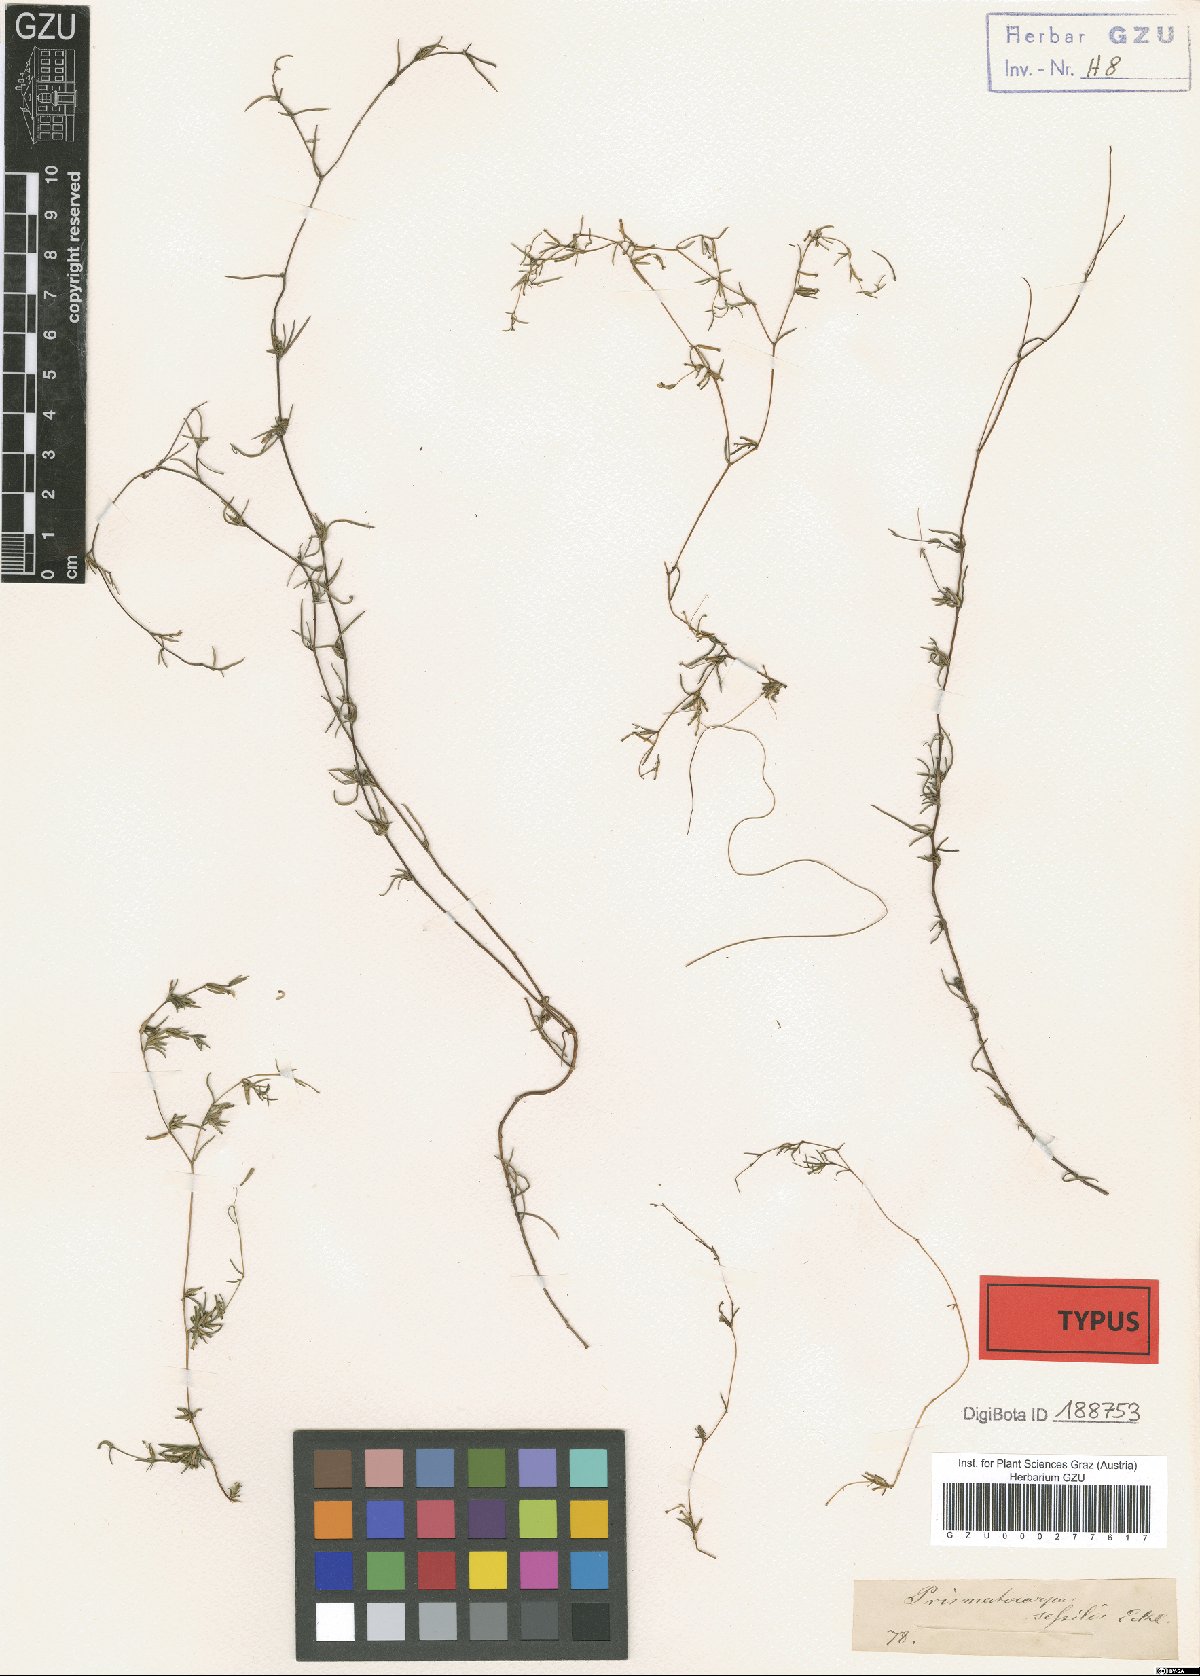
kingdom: Plantae
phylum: Tracheophyta
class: Magnoliopsida
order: Asterales
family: Campanulaceae
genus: Prismatocarpus
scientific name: Prismatocarpus sessilis
